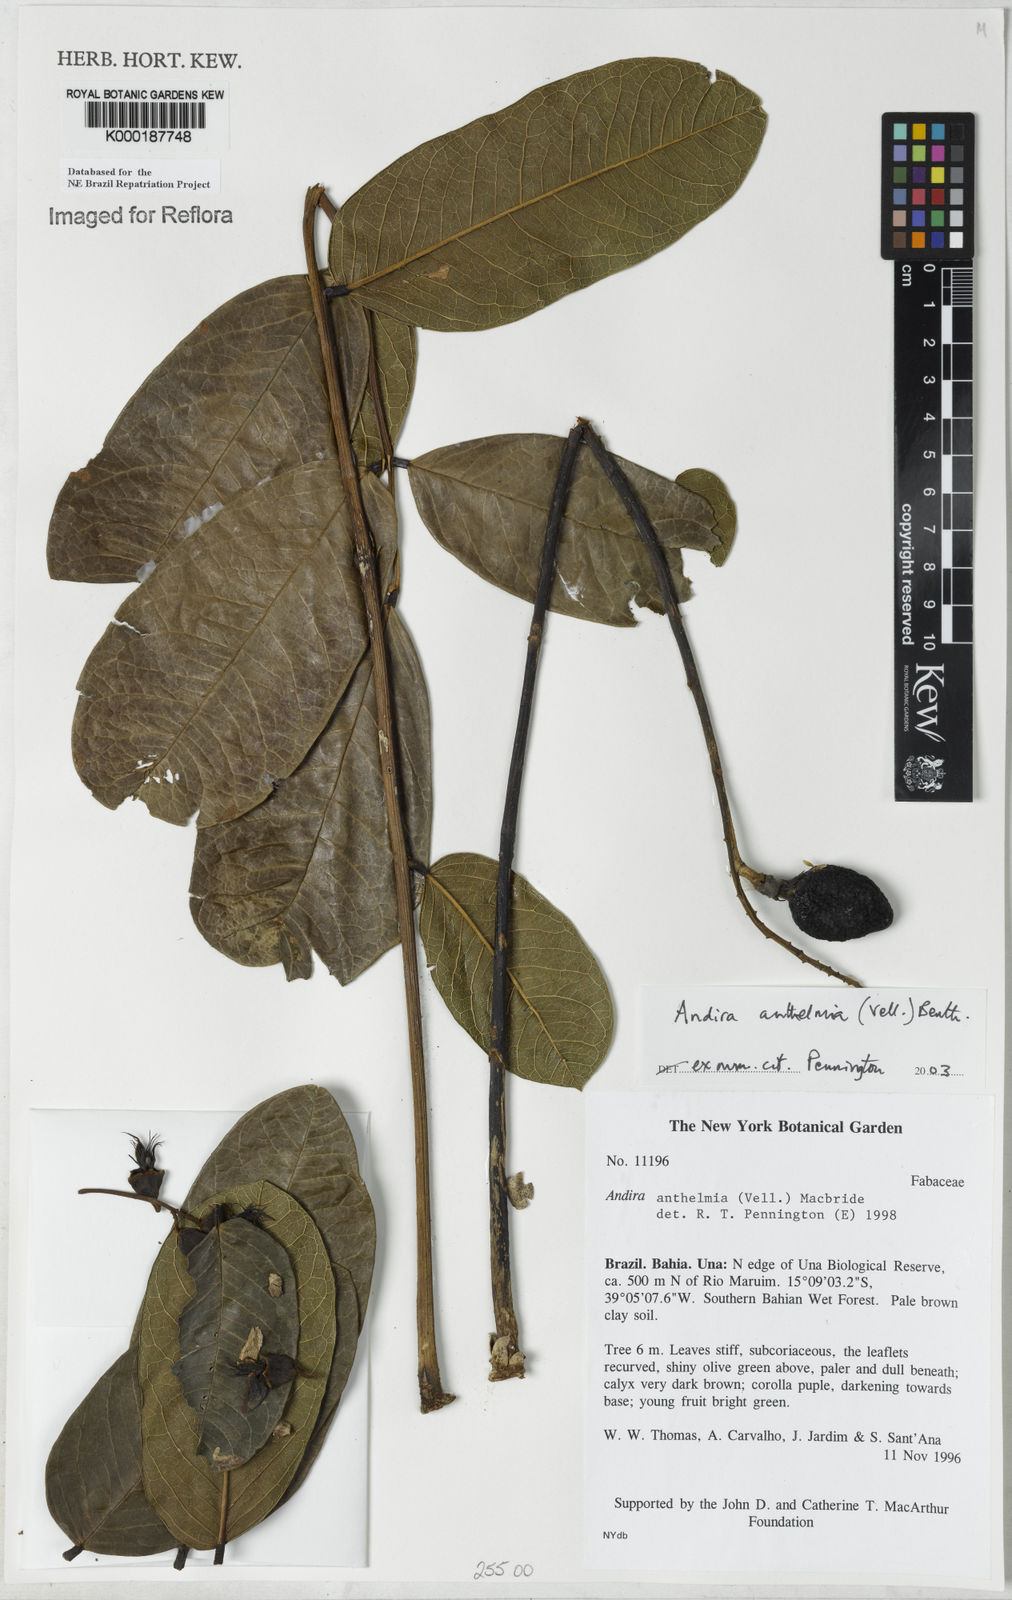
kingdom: Plantae
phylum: Tracheophyta
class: Magnoliopsida
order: Fabales
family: Fabaceae
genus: Andira
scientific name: Andira
